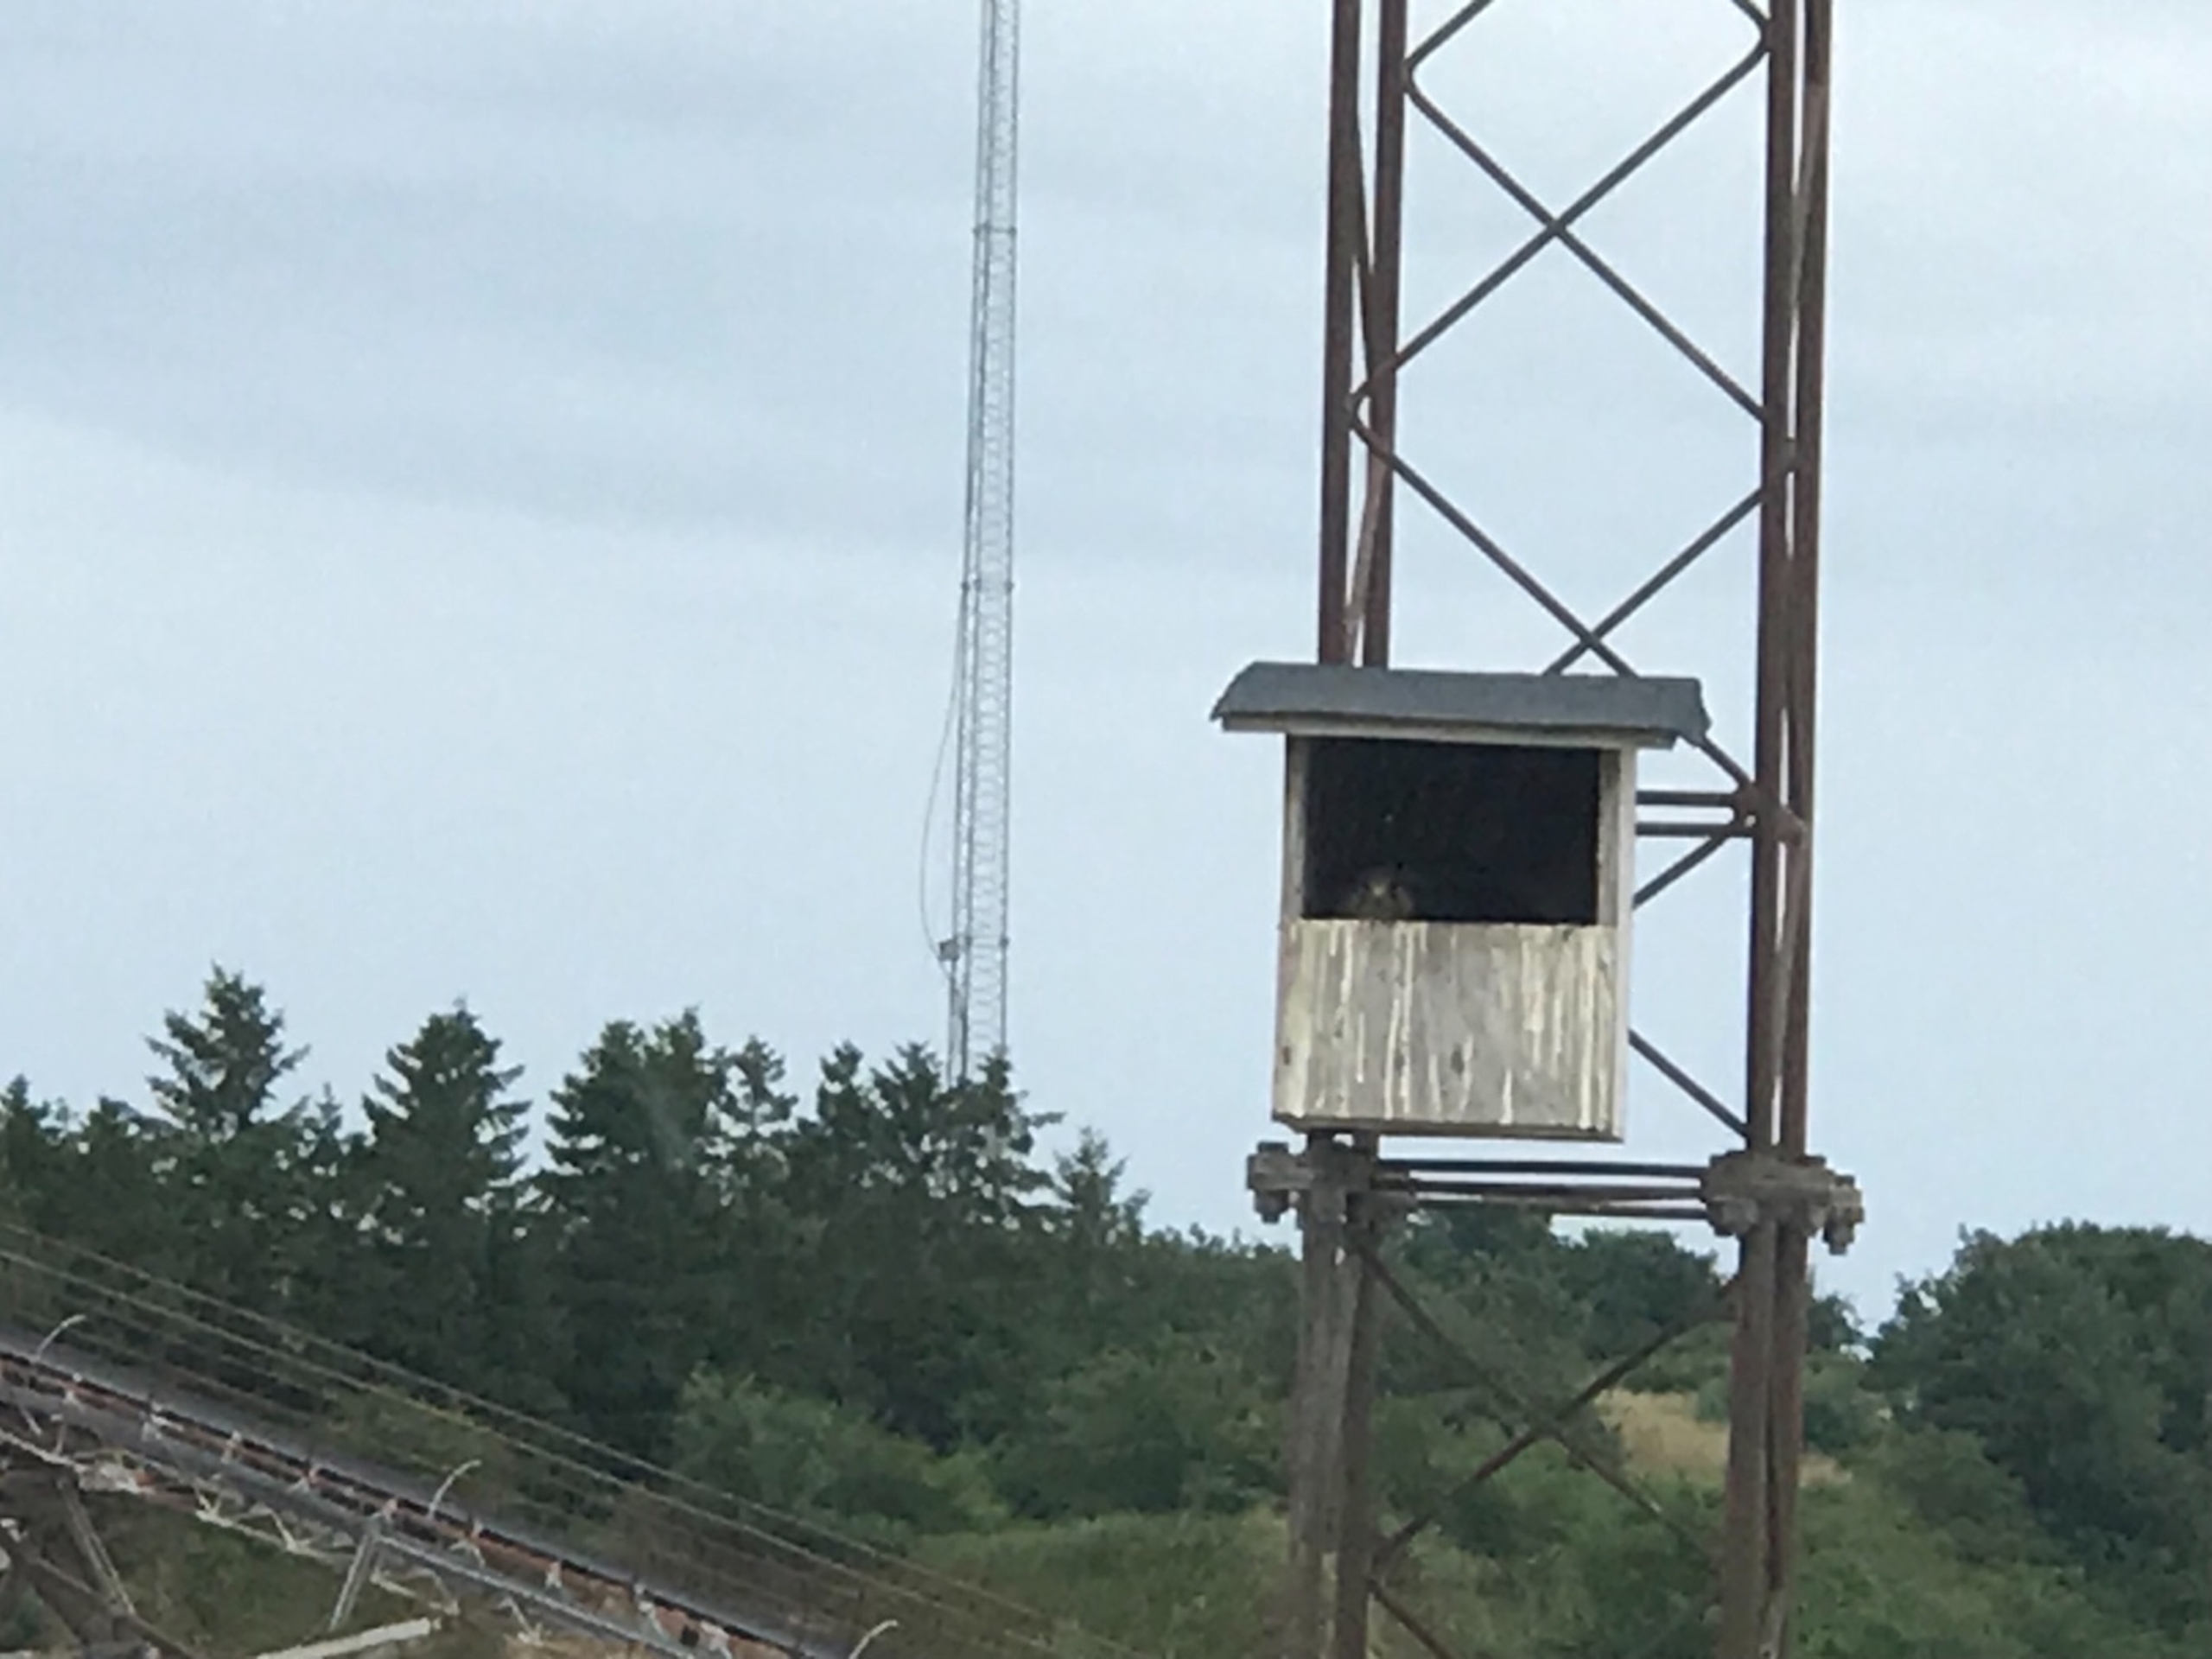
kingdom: Animalia
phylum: Chordata
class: Aves
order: Falconiformes
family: Falconidae
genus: Falco
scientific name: Falco tinnunculus
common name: Tårnfalk
